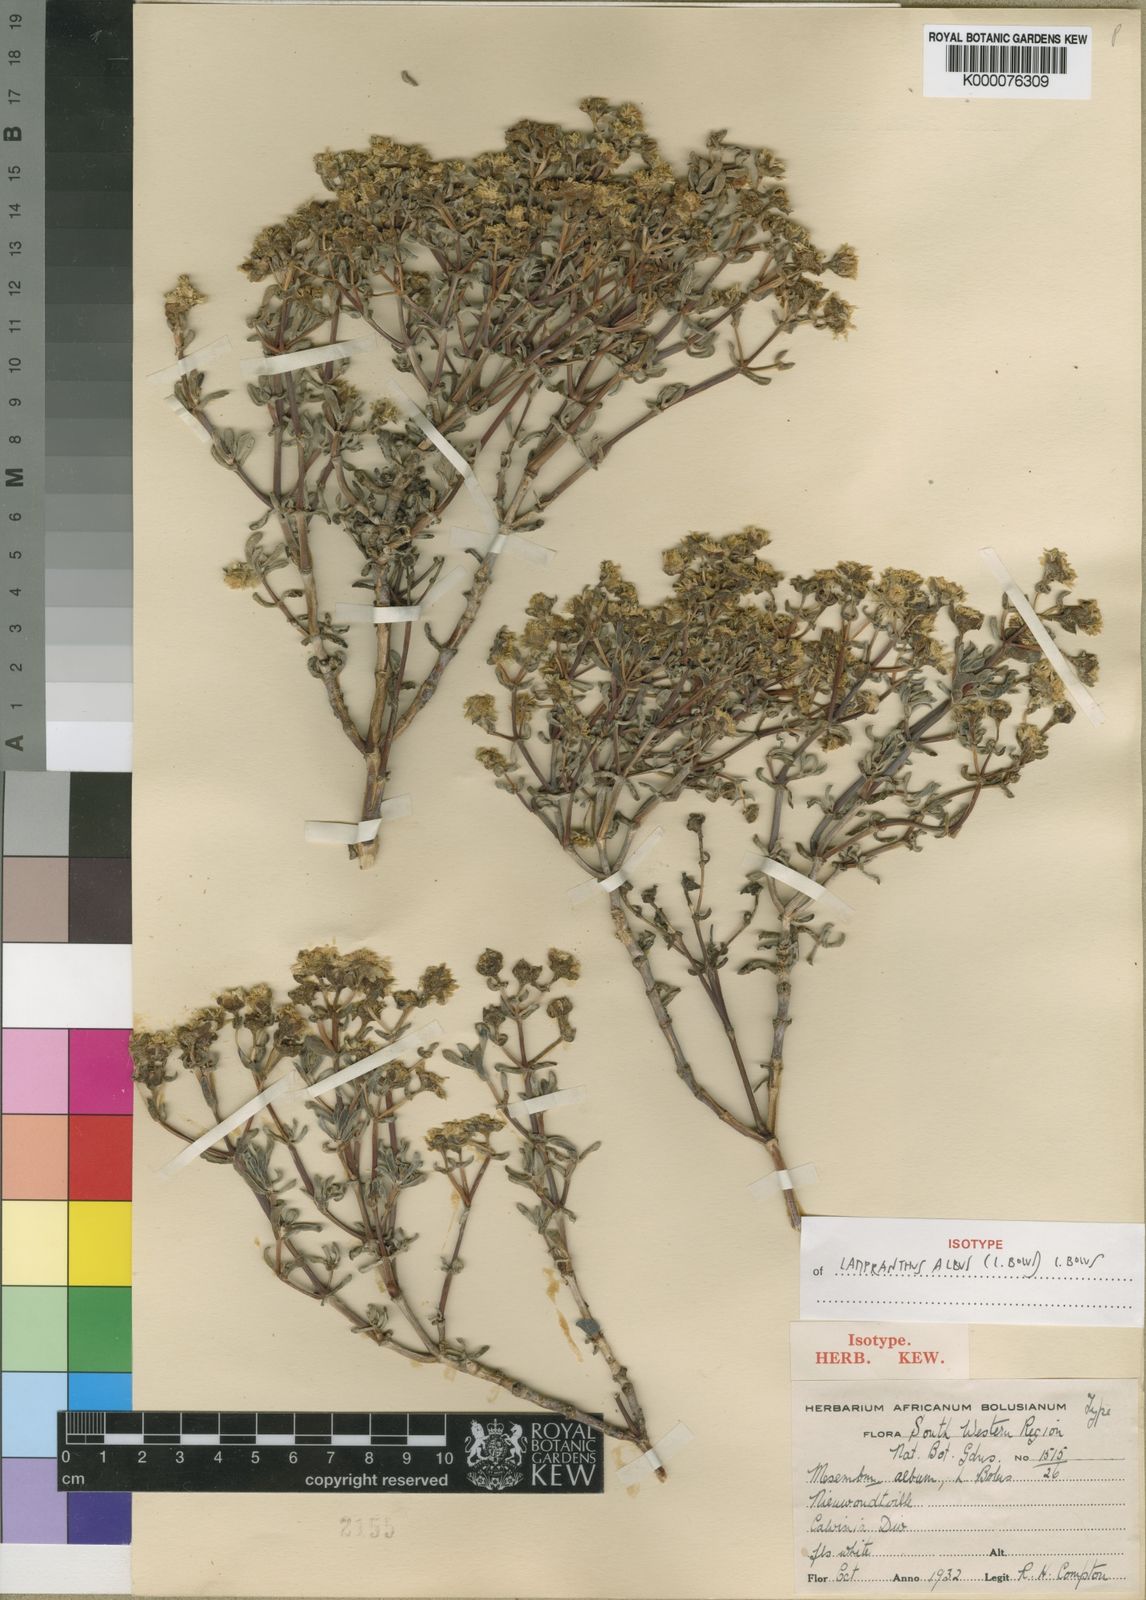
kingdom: Plantae
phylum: Tracheophyta
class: Magnoliopsida
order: Caryophyllales
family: Aizoaceae
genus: Oscularia
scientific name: Oscularia alba
